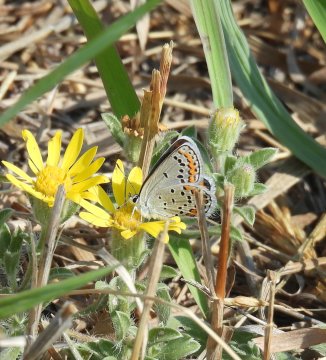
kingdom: Animalia
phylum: Arthropoda
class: Insecta
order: Lepidoptera
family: Lycaenidae
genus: Lycaeides
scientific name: Lycaeides melissa
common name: Melissa Blue
